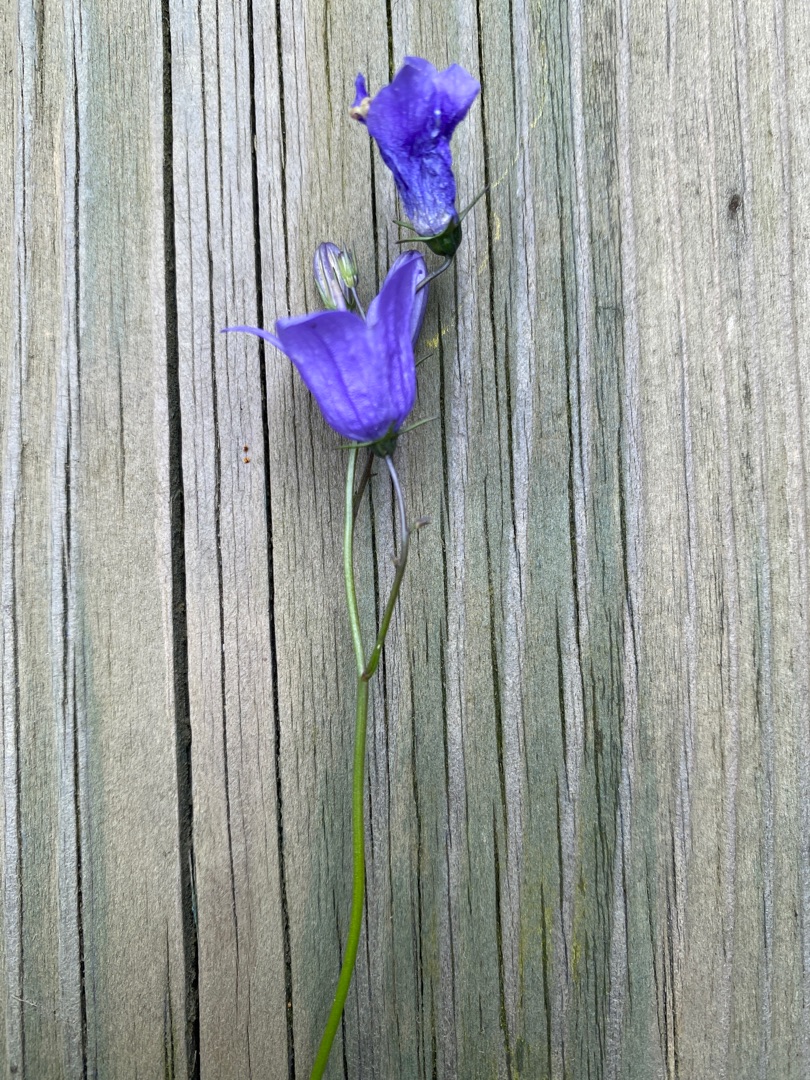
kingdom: Plantae
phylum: Tracheophyta
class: Magnoliopsida
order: Asterales
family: Campanulaceae
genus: Campanula
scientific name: Campanula rotundifolia
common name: Liden klokke
